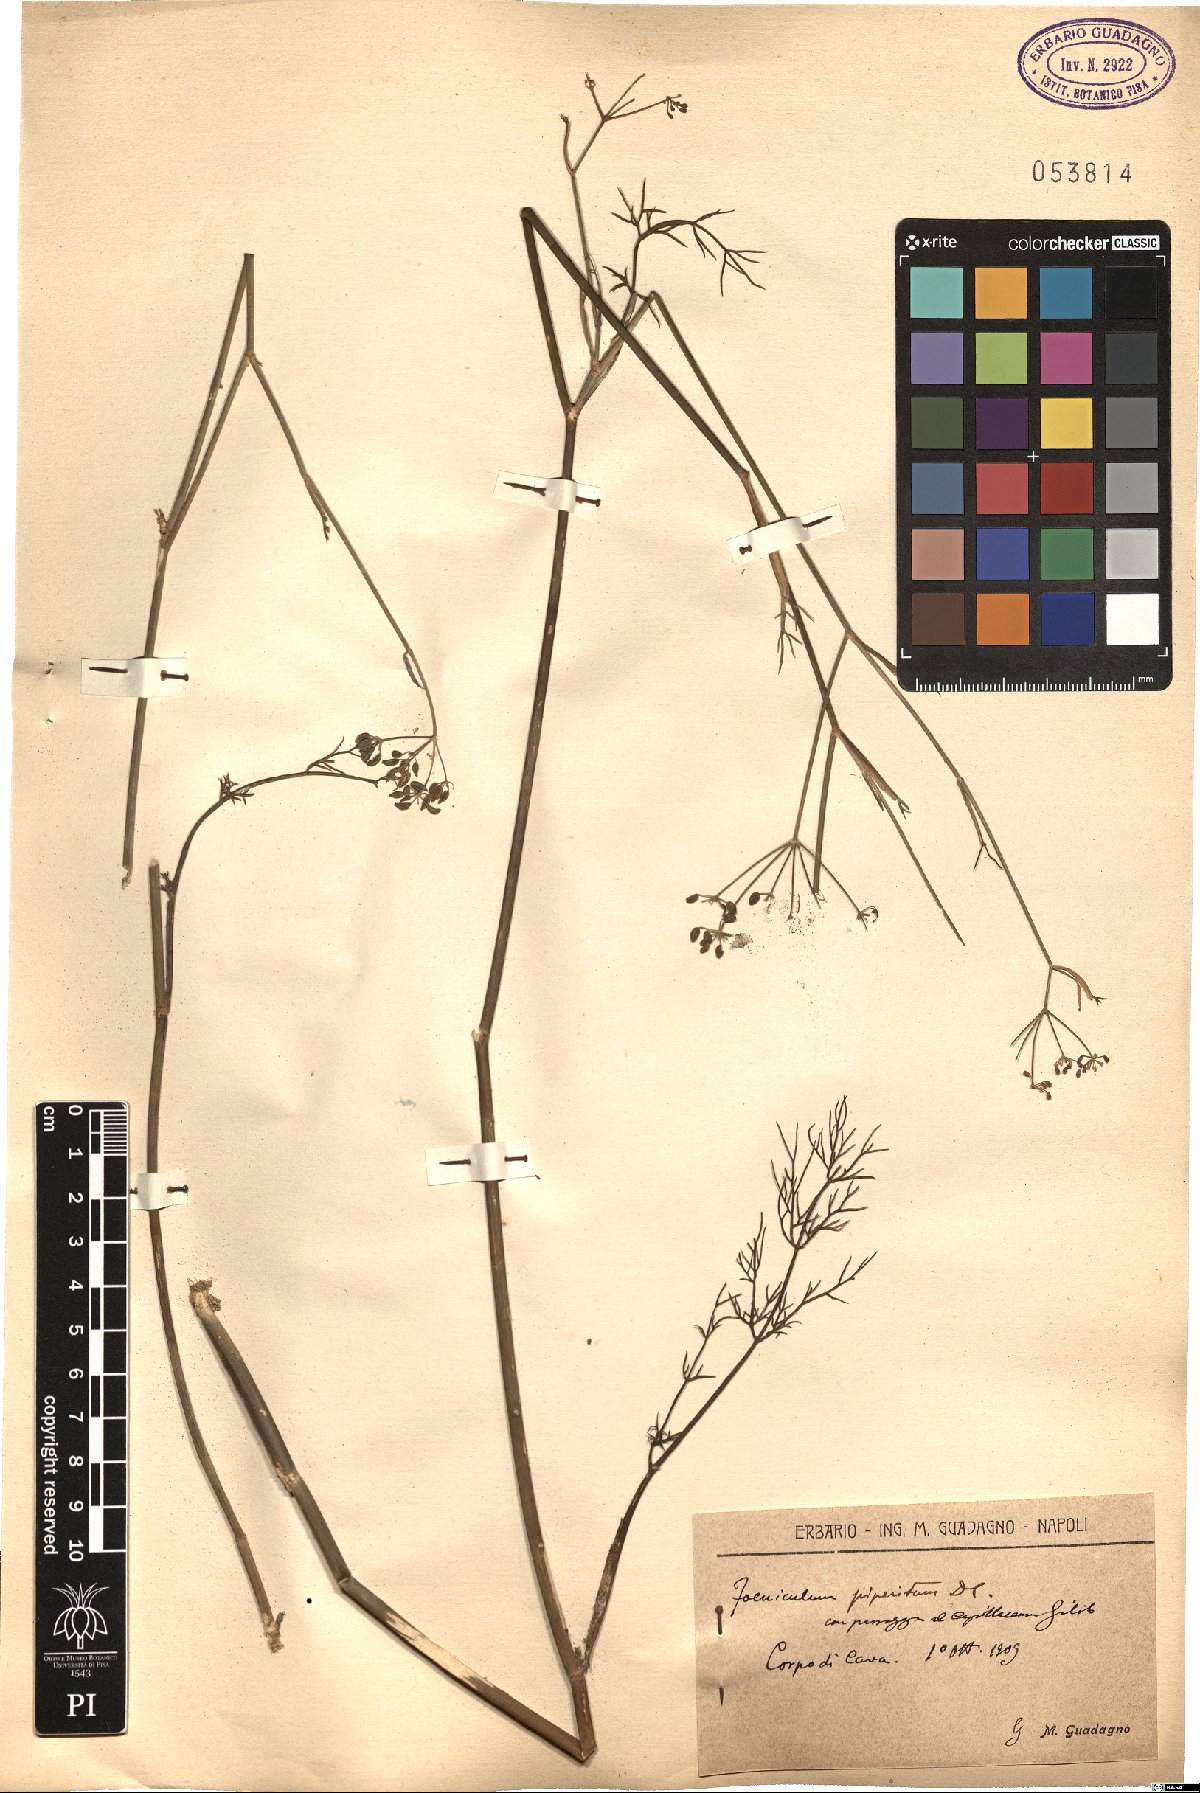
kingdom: Plantae
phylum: Tracheophyta
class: Magnoliopsida
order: Apiales
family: Apiaceae
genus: Foeniculum
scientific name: Foeniculum vulgare
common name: Fennel
